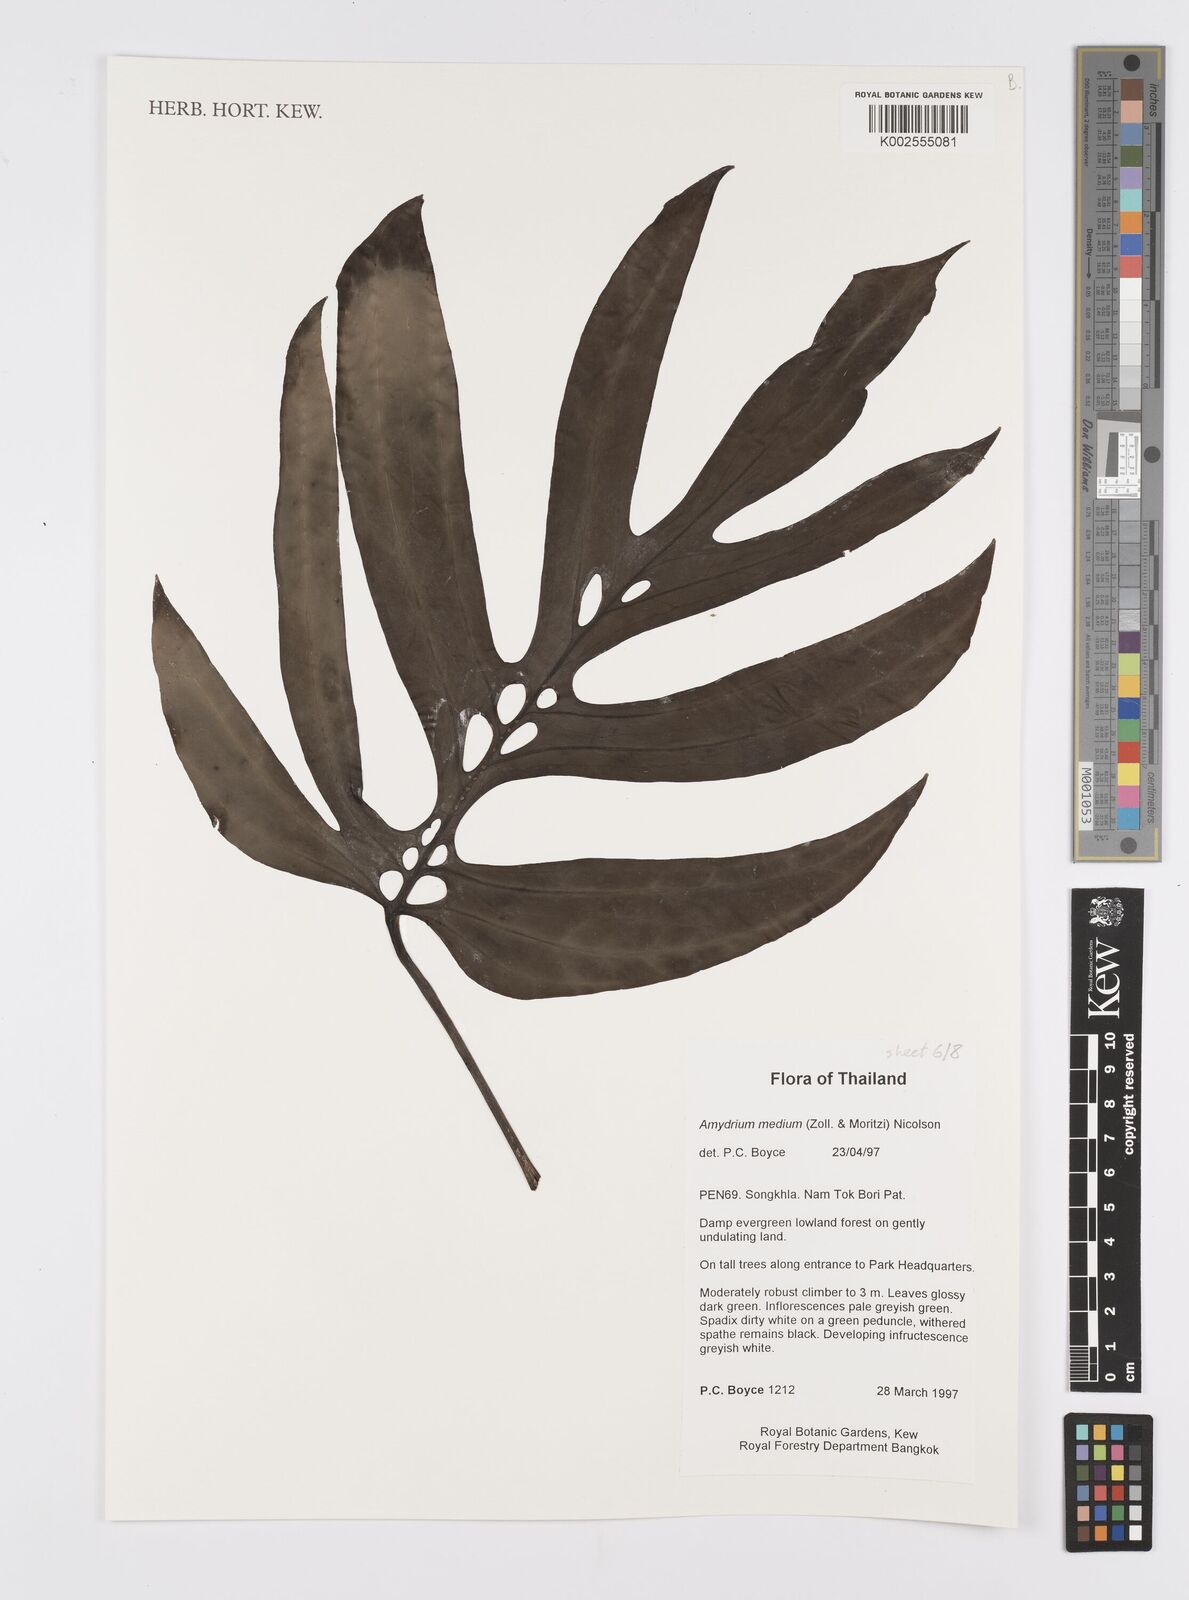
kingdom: Plantae
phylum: Tracheophyta
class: Liliopsida
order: Alismatales
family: Araceae
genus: Amydrium
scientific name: Amydrium medium
